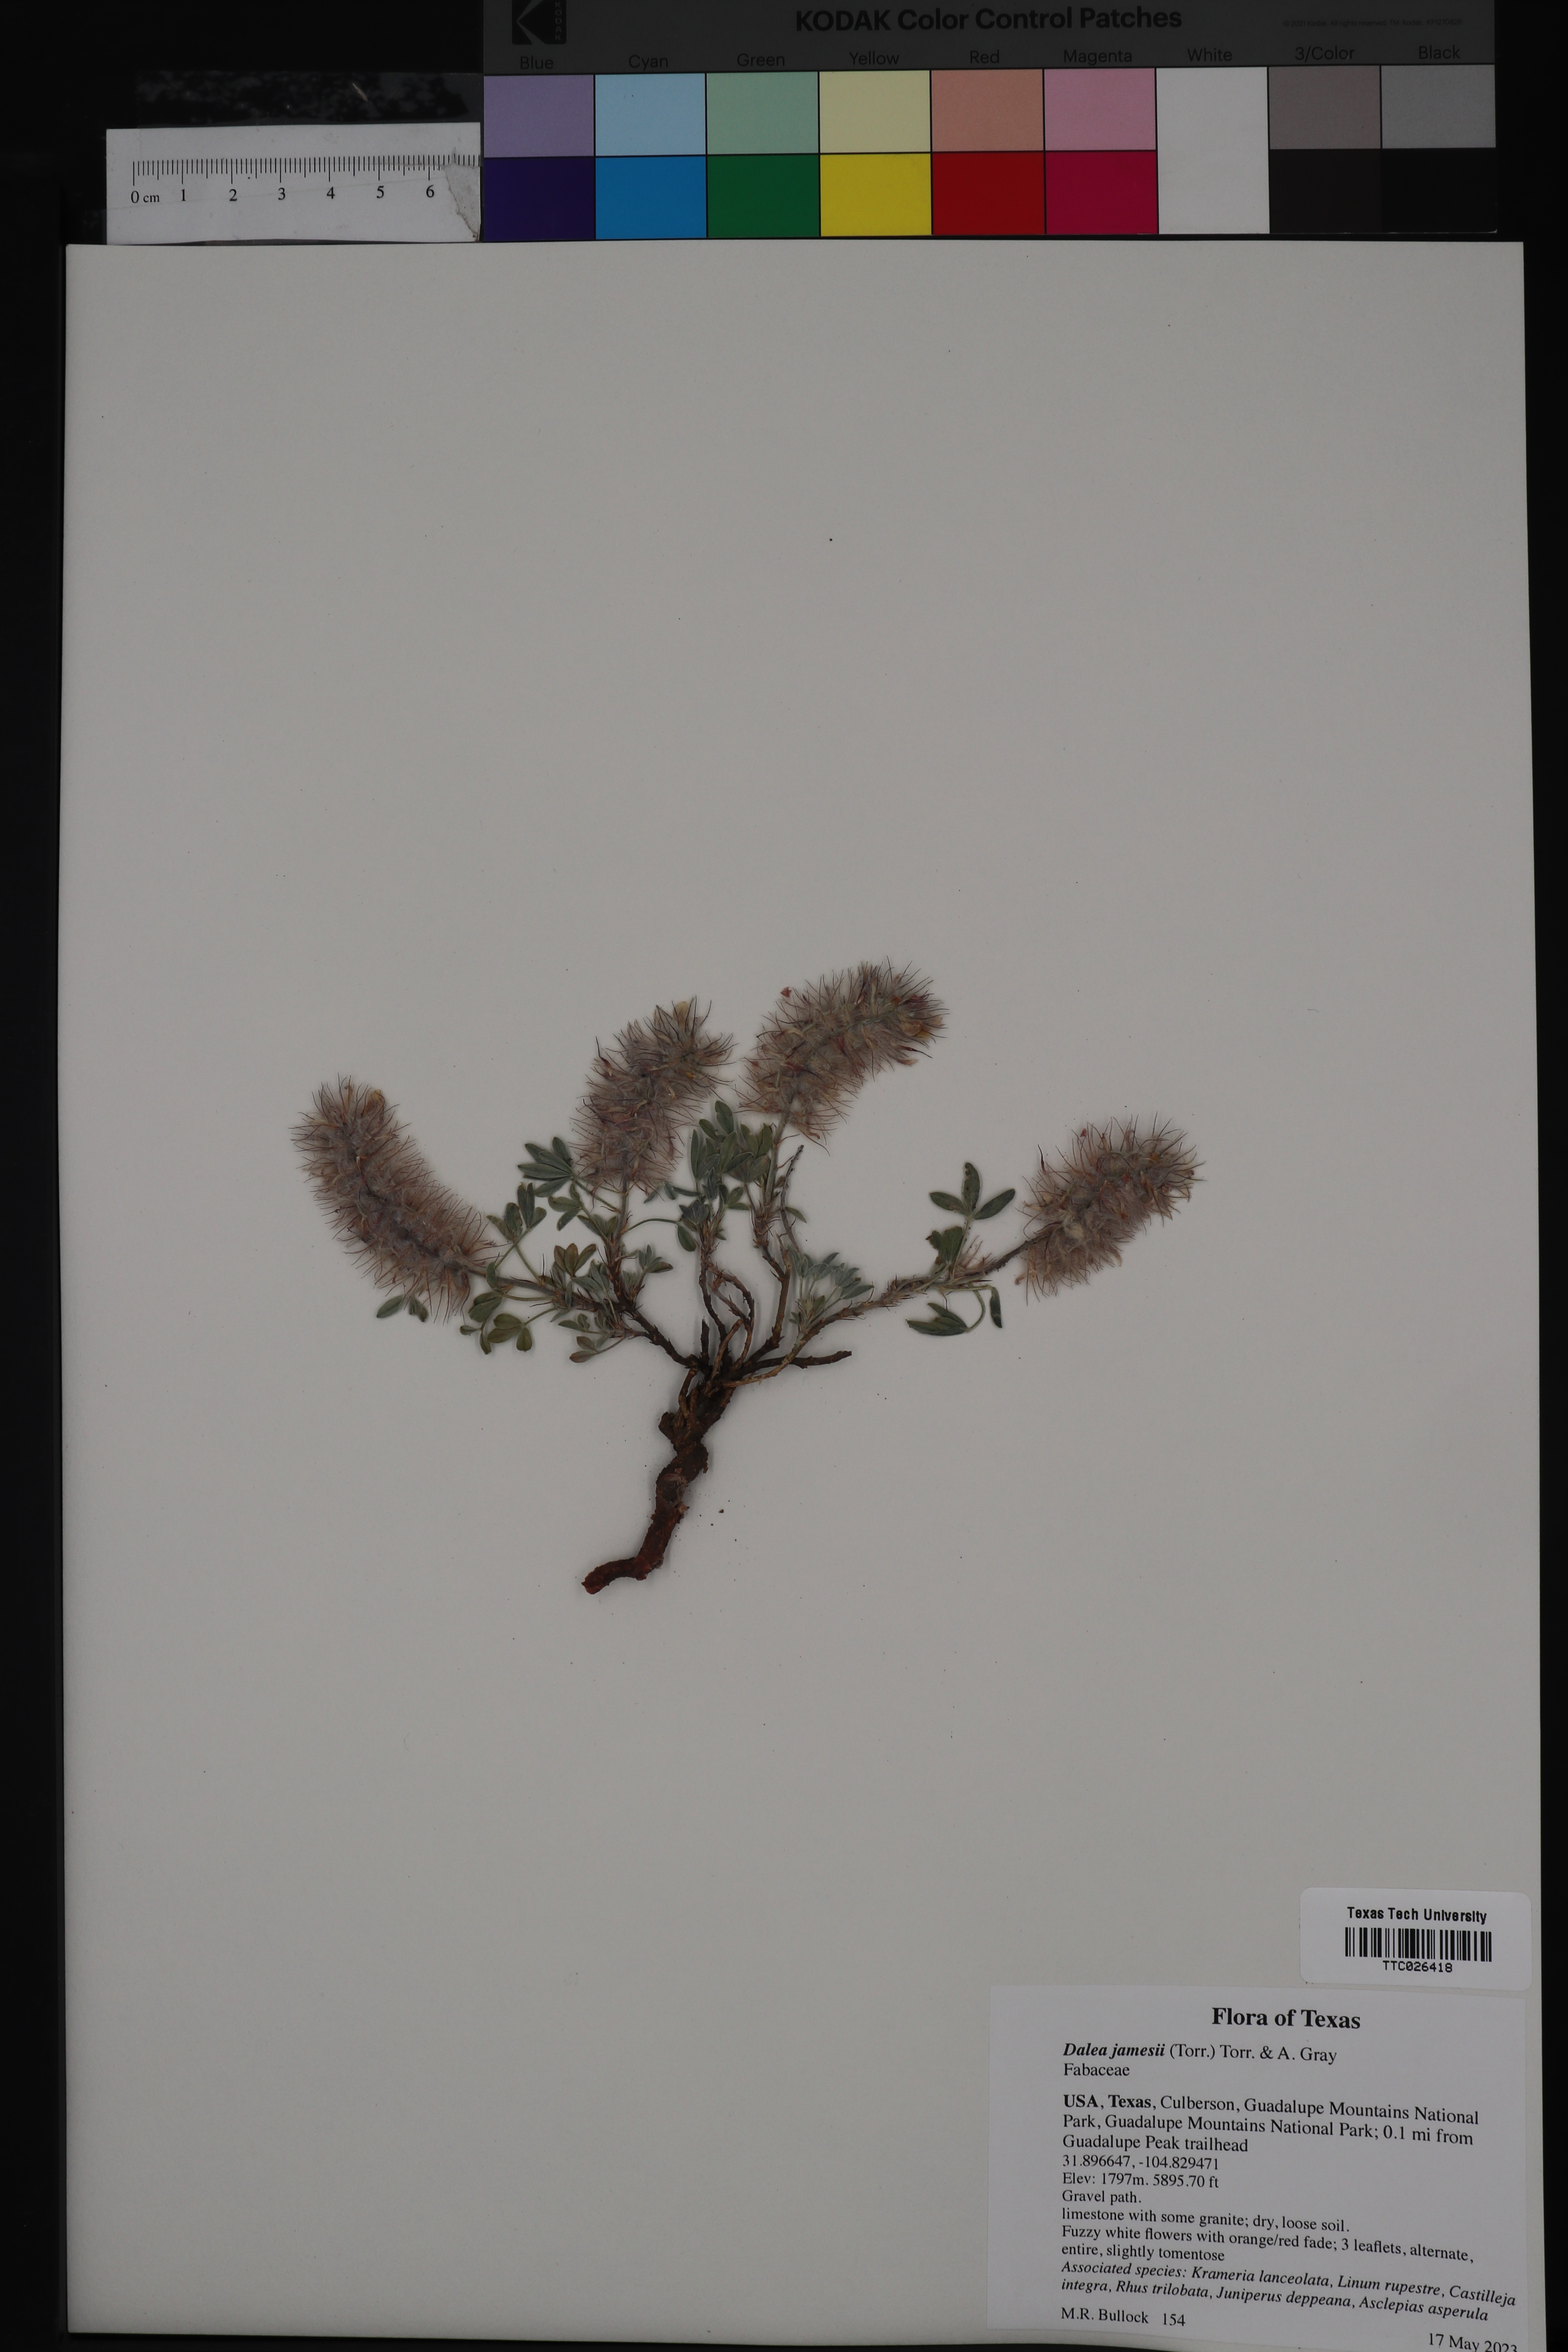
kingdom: Plantae
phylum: Tracheophyta
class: Magnoliopsida
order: Fabales
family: Fabaceae
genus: Dalea
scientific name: Dalea jamesii
